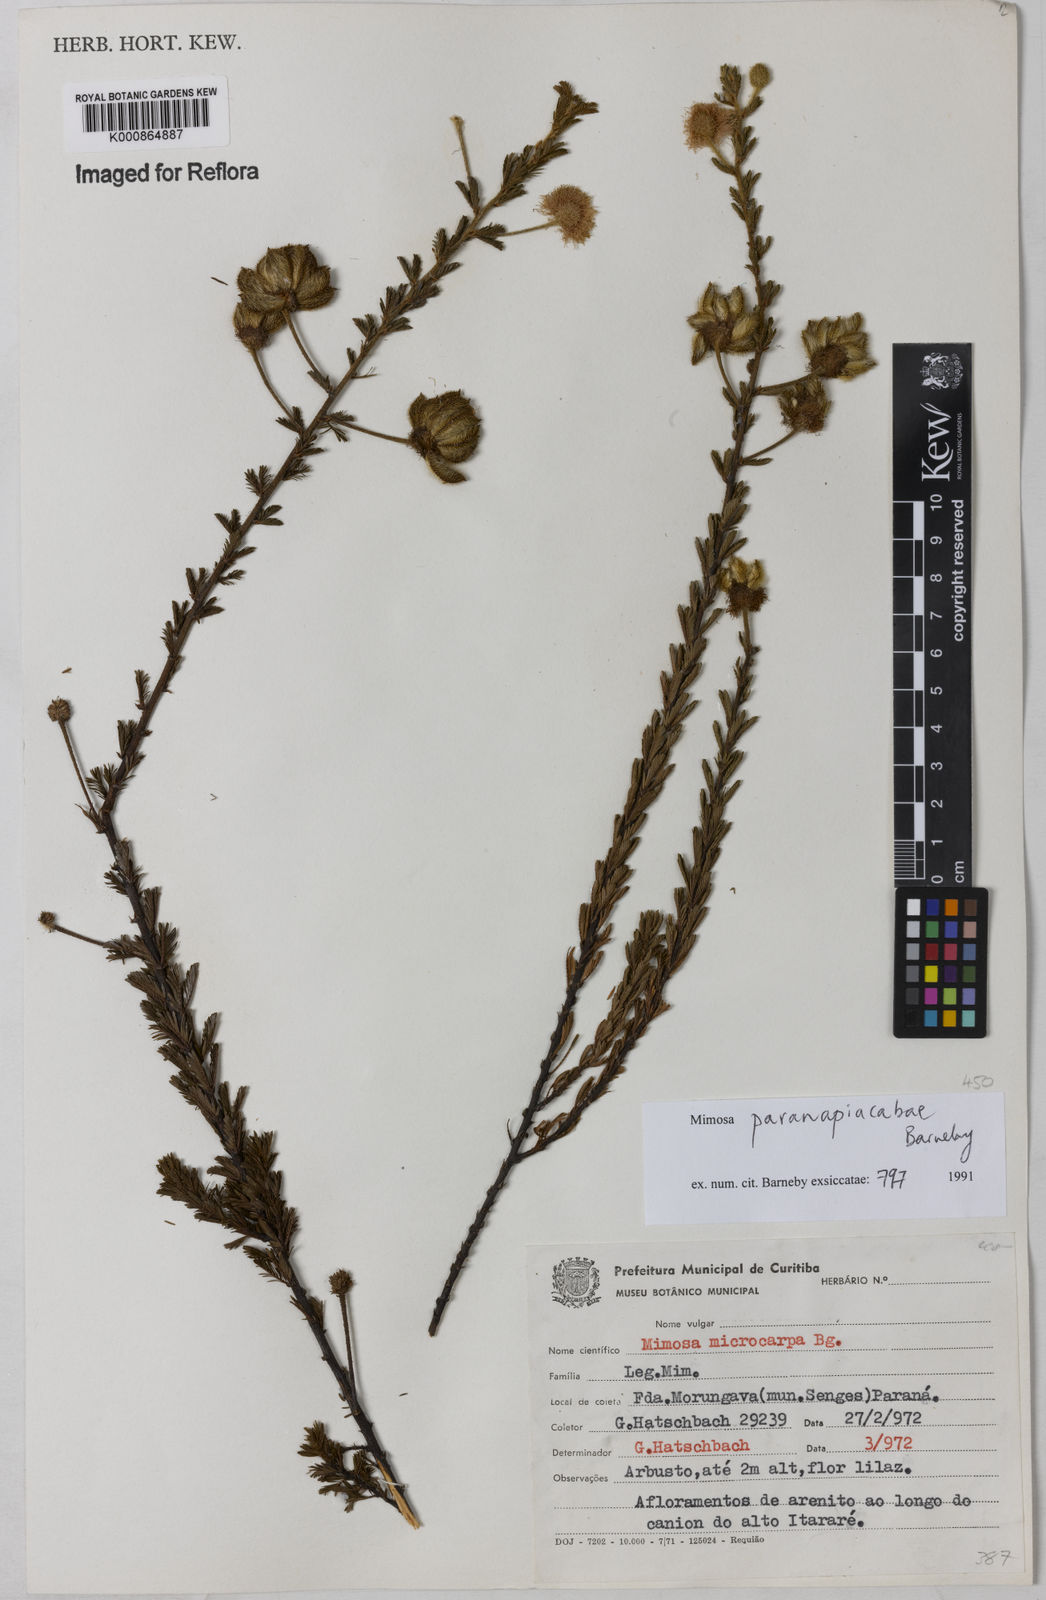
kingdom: Plantae
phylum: Tracheophyta
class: Magnoliopsida
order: Fabales
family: Fabaceae
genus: Mimosa
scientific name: Mimosa paranapiacabae
